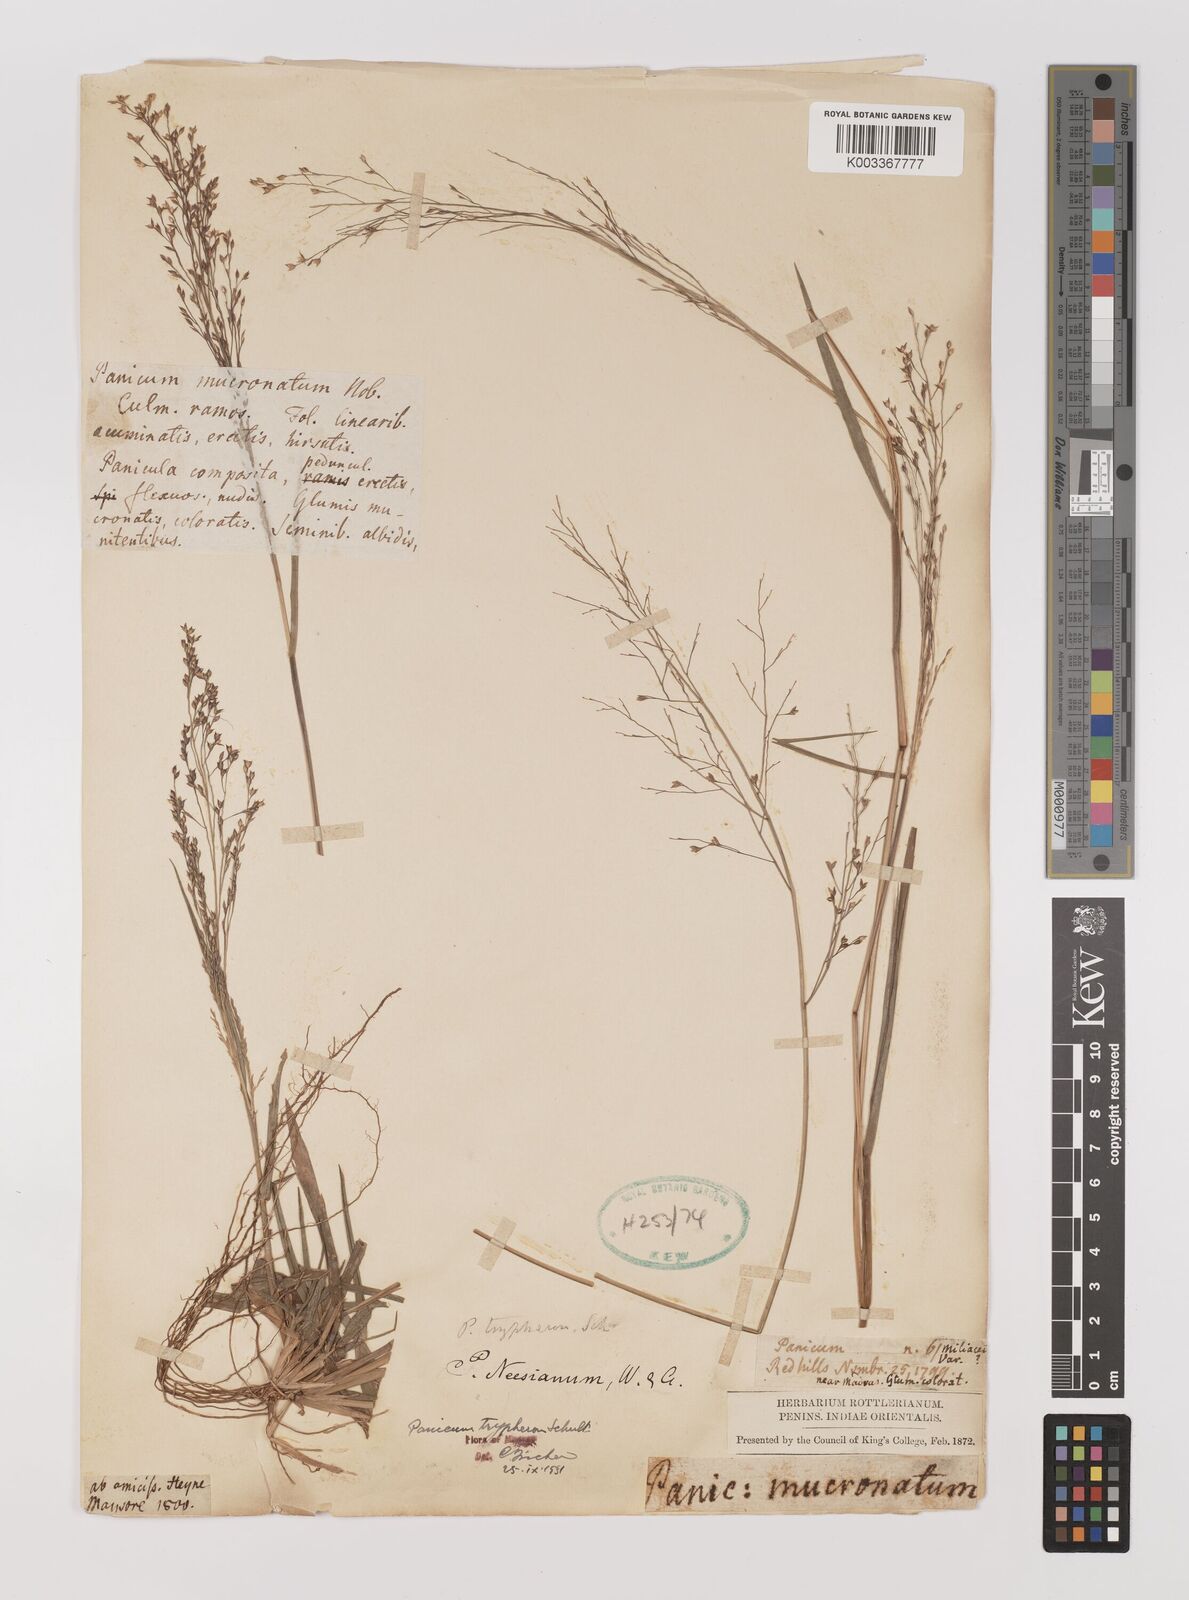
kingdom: Plantae
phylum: Tracheophyta
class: Liliopsida
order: Poales
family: Poaceae
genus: Panicum
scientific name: Panicum curviflorum
